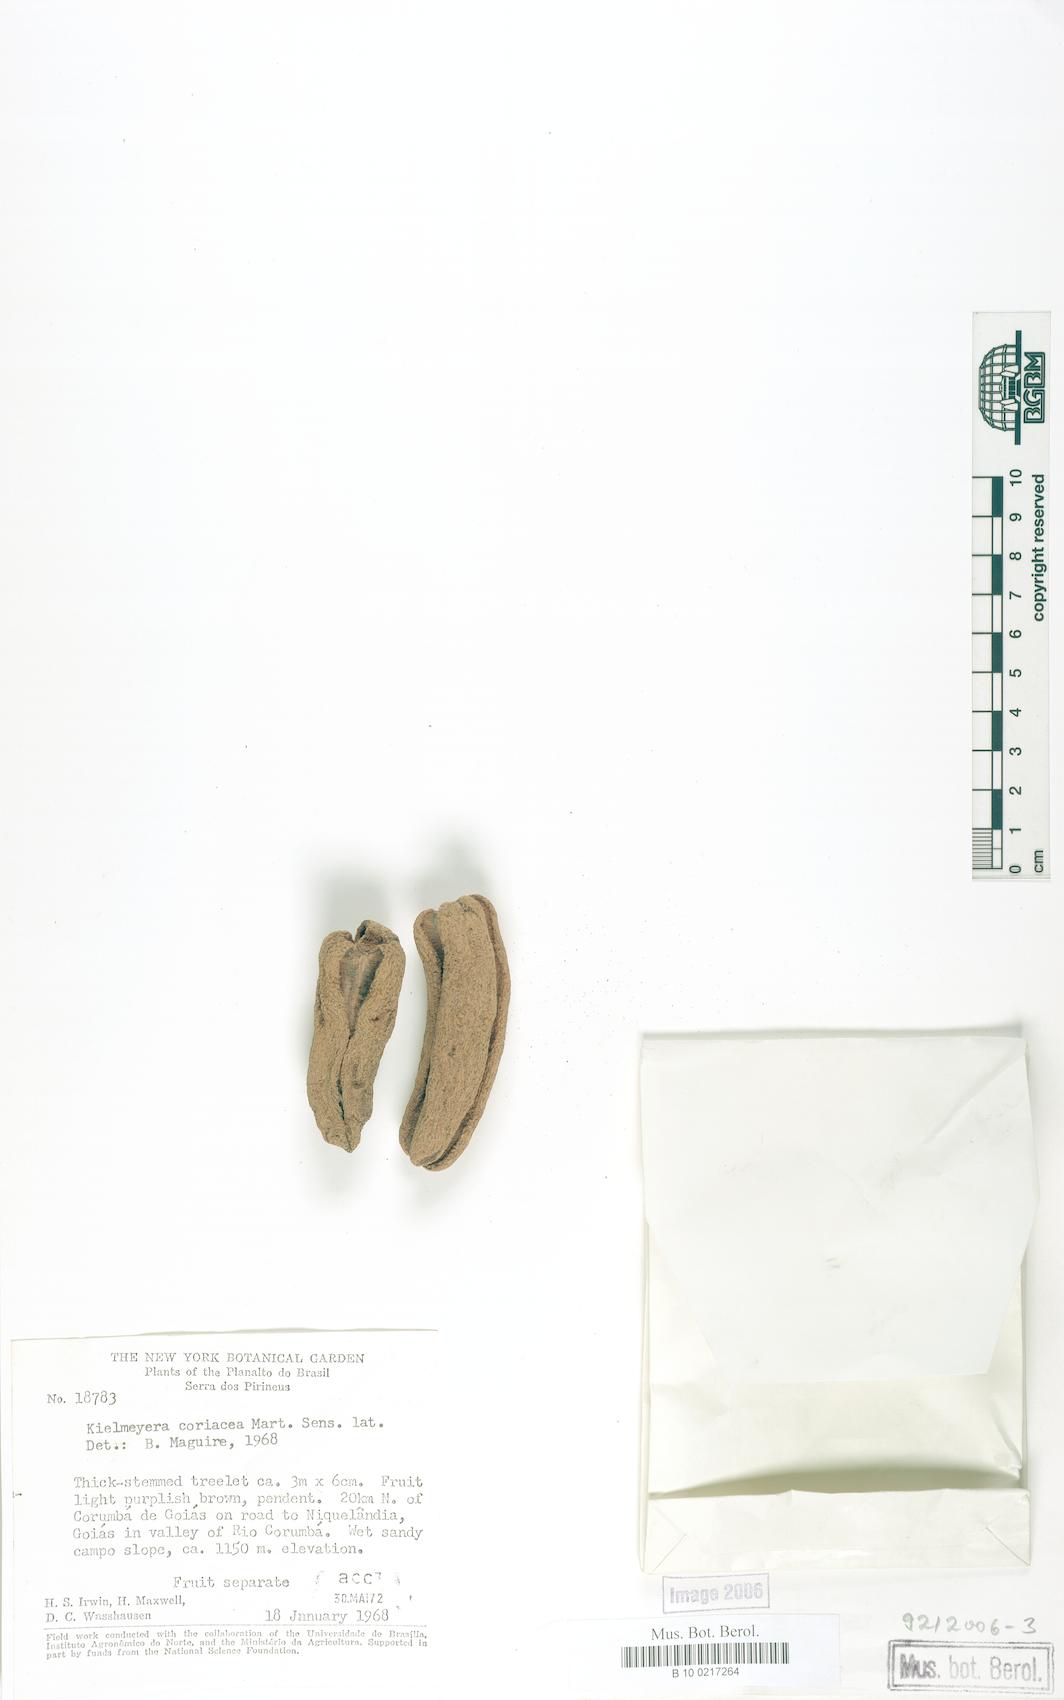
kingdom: Plantae
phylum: Tracheophyta
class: Magnoliopsida
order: Malpighiales
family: Calophyllaceae
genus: Kielmeyera
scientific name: Kielmeyera coriacea
